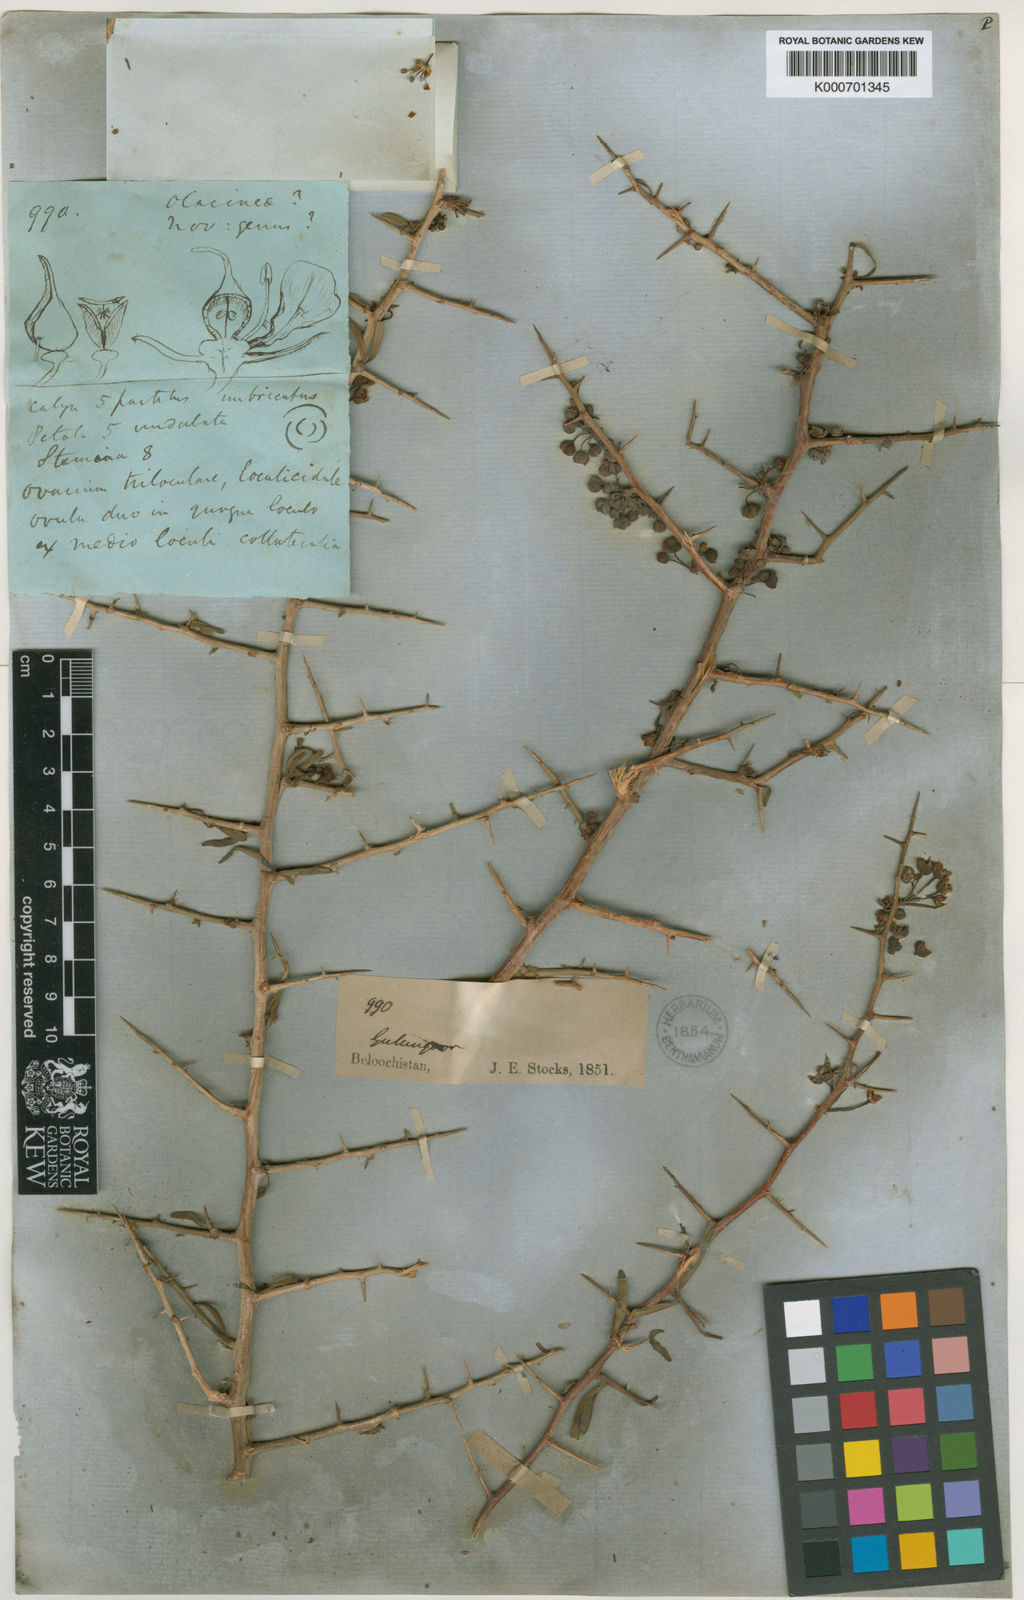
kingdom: Plantae
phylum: Tracheophyta
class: Magnoliopsida
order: Sapindales
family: Sapindaceae
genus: Stocksia
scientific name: Stocksia brahuica
